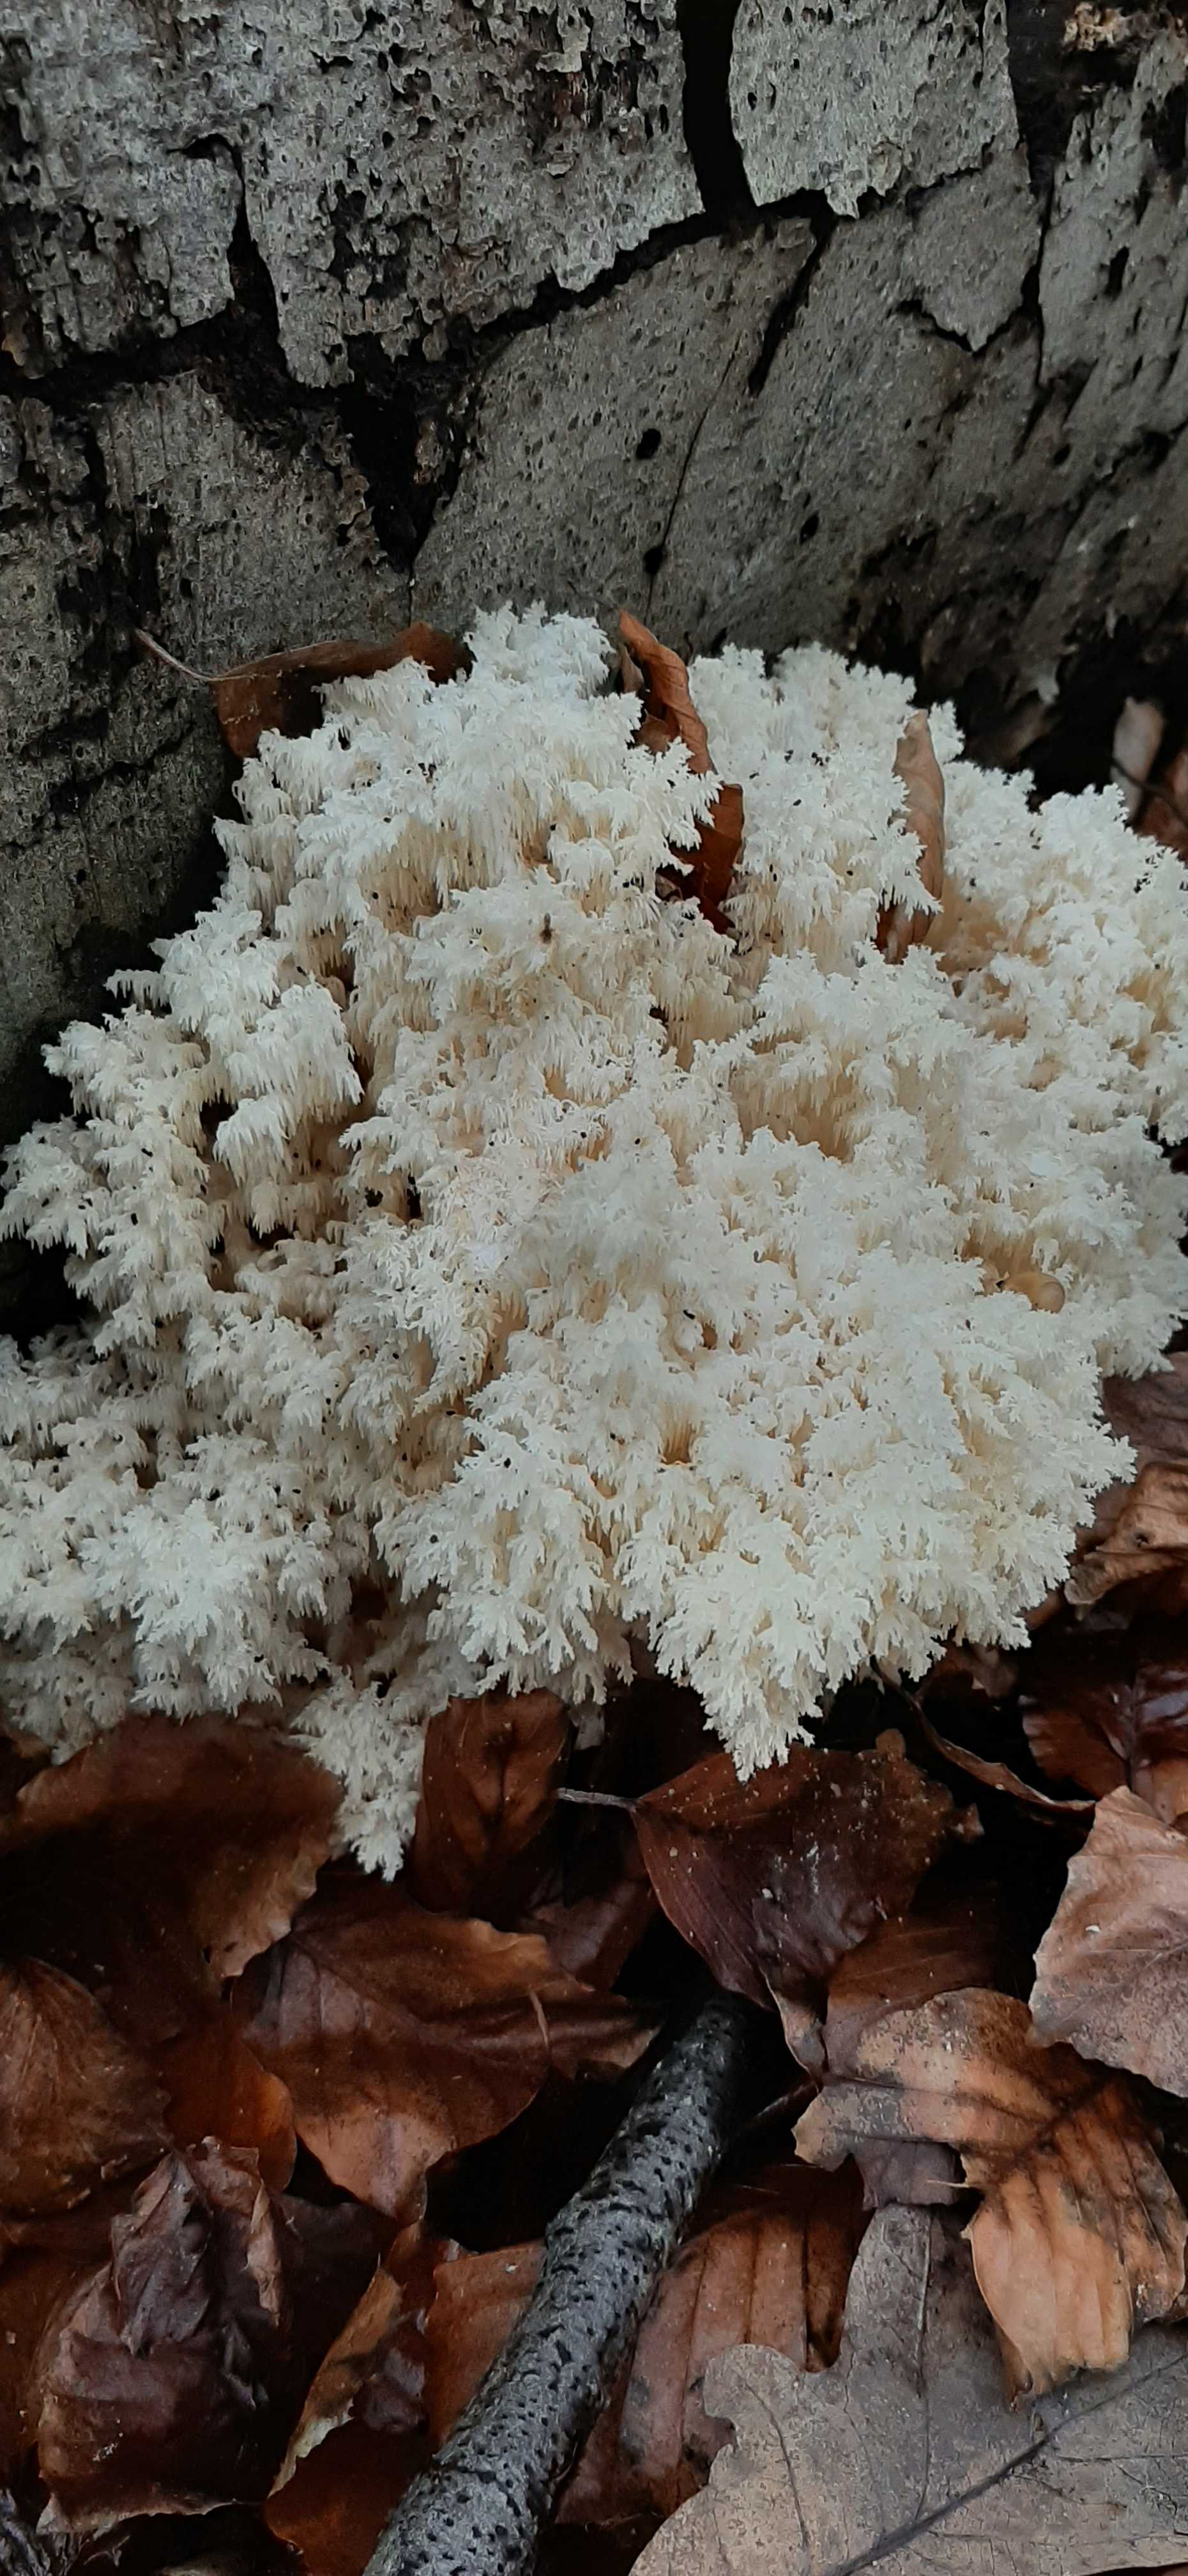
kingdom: Fungi
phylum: Basidiomycota
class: Agaricomycetes
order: Russulales
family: Hericiaceae
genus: Hericium
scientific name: Hericium coralloides
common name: koralpigsvamp
